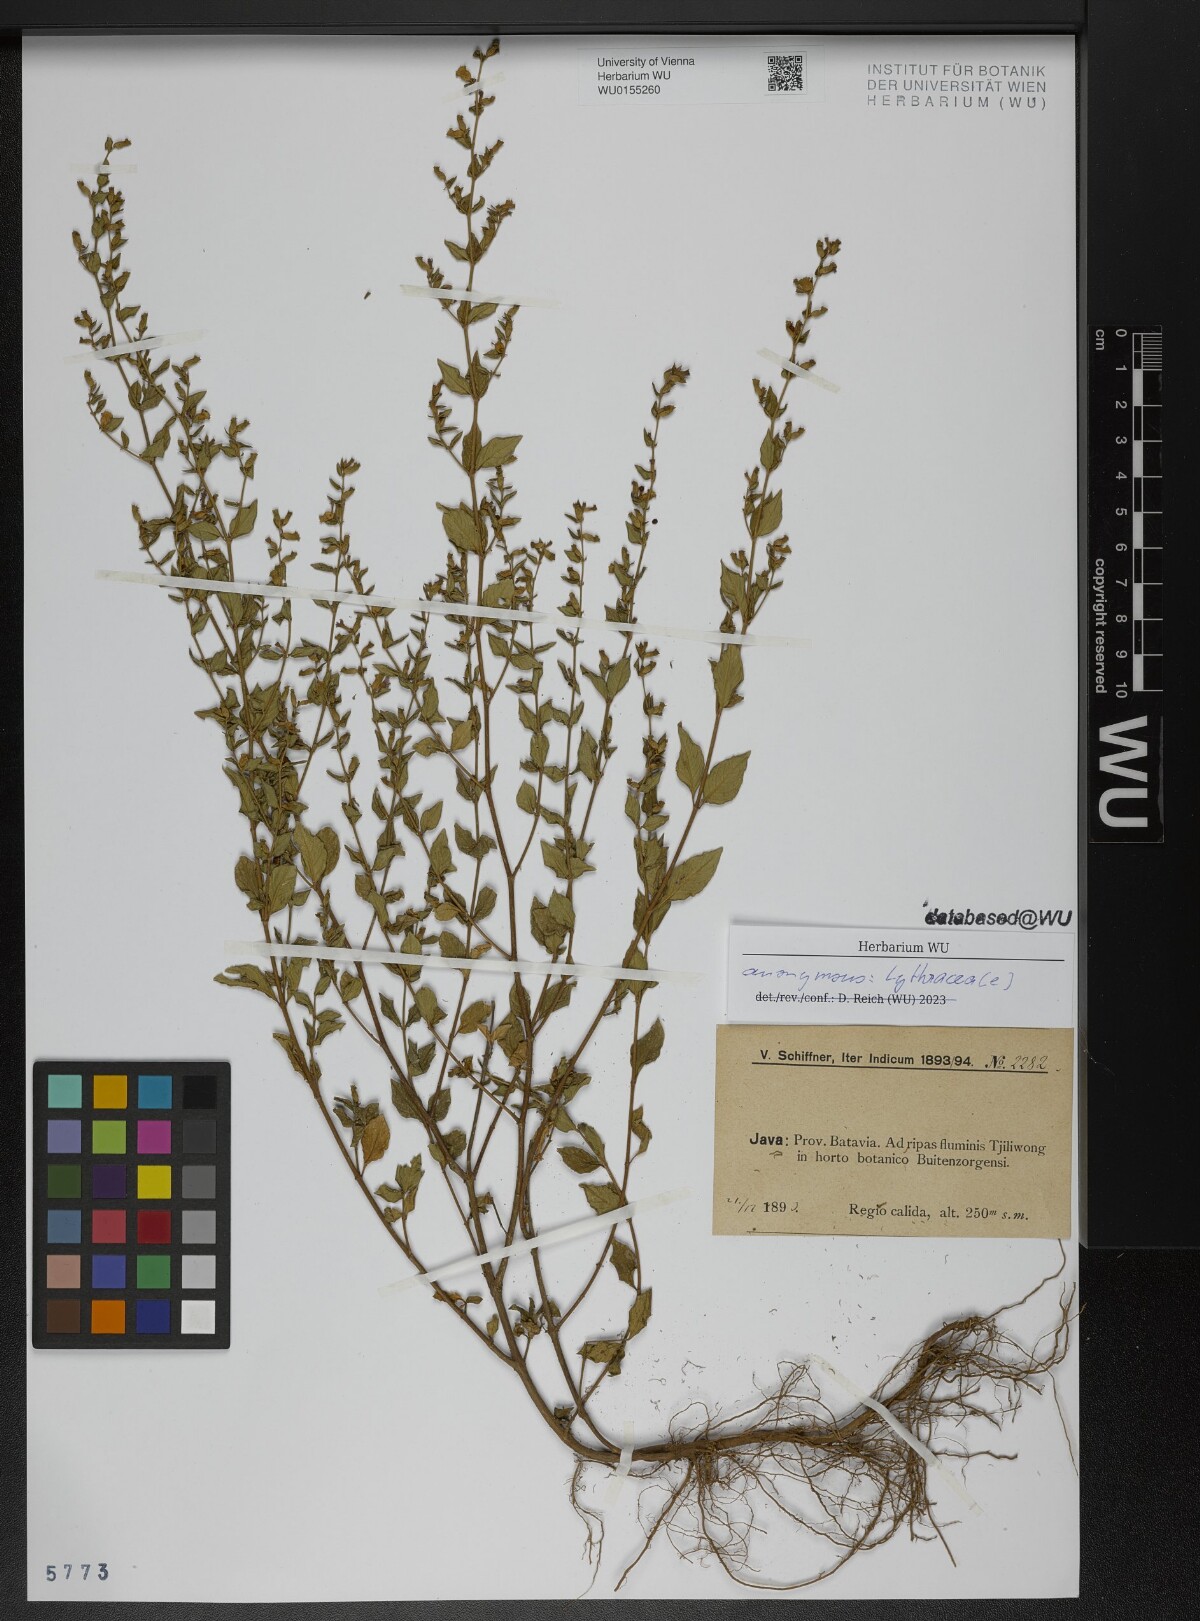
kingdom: Plantae
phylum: Tracheophyta
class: Magnoliopsida
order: Myrtales
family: Lythraceae
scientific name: Lythraceae
